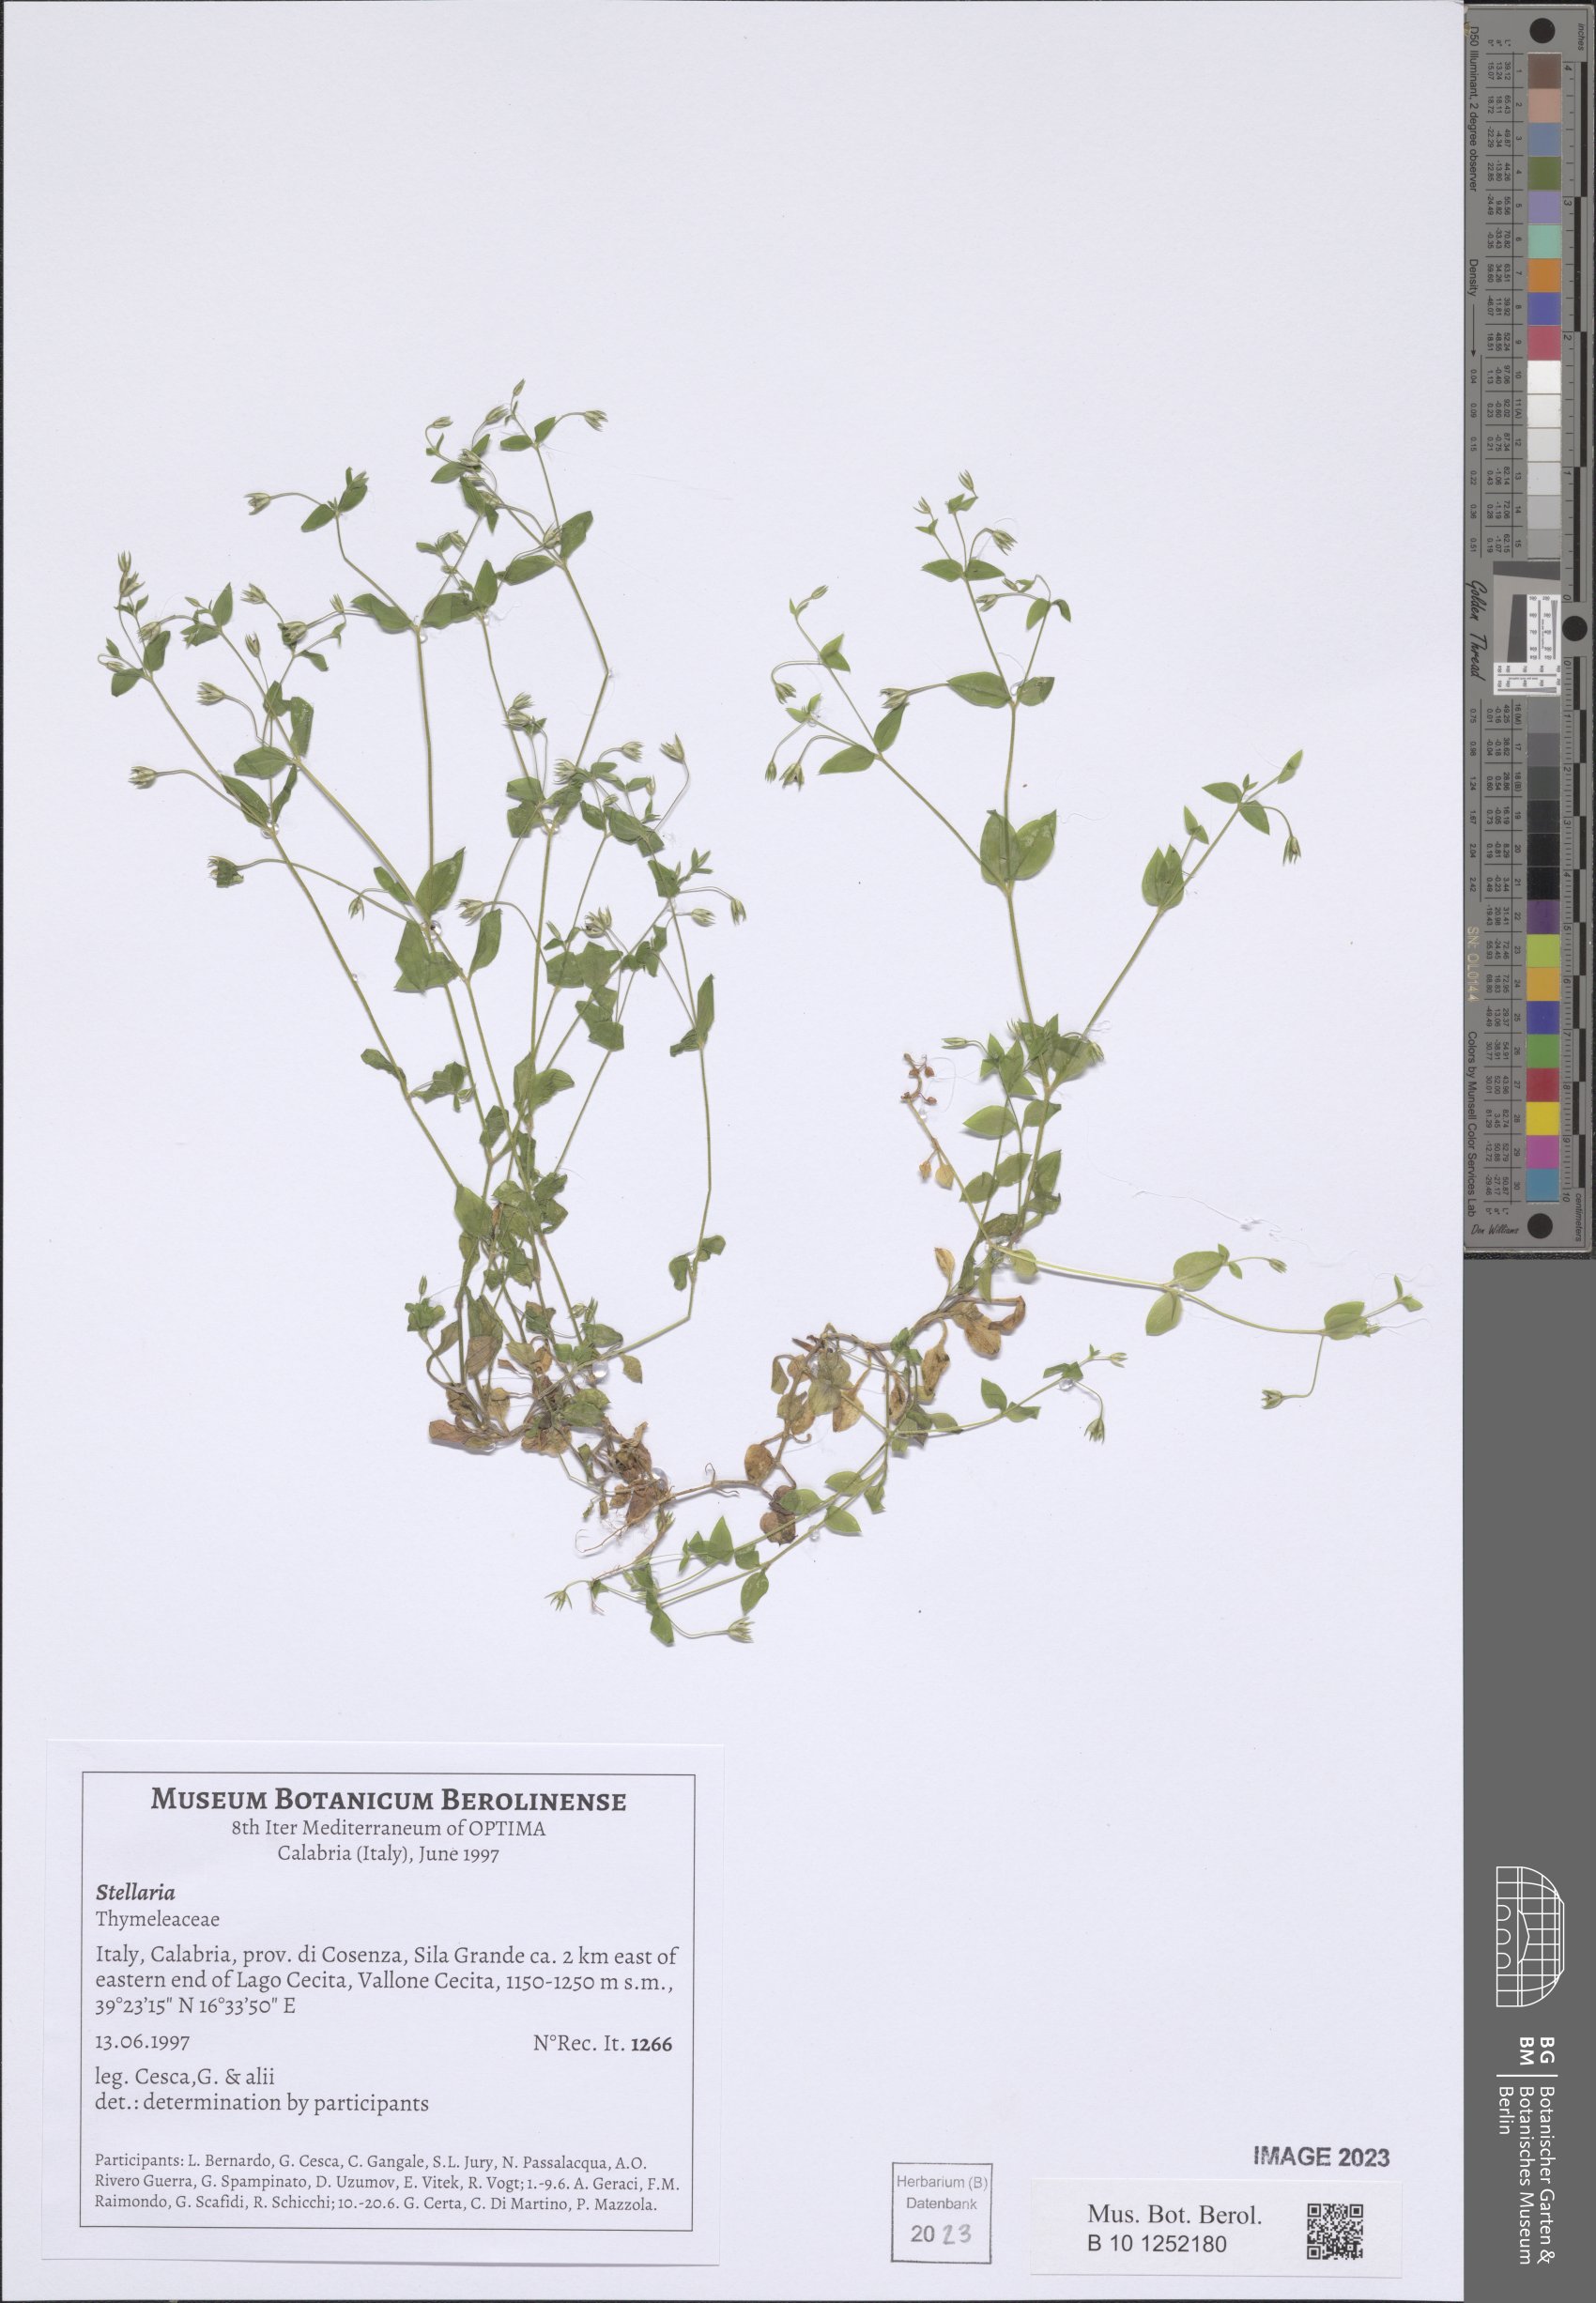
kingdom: Plantae
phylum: Tracheophyta
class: Magnoliopsida
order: Caryophyllales
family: Caryophyllaceae
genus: Stellaria
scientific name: Stellaria
